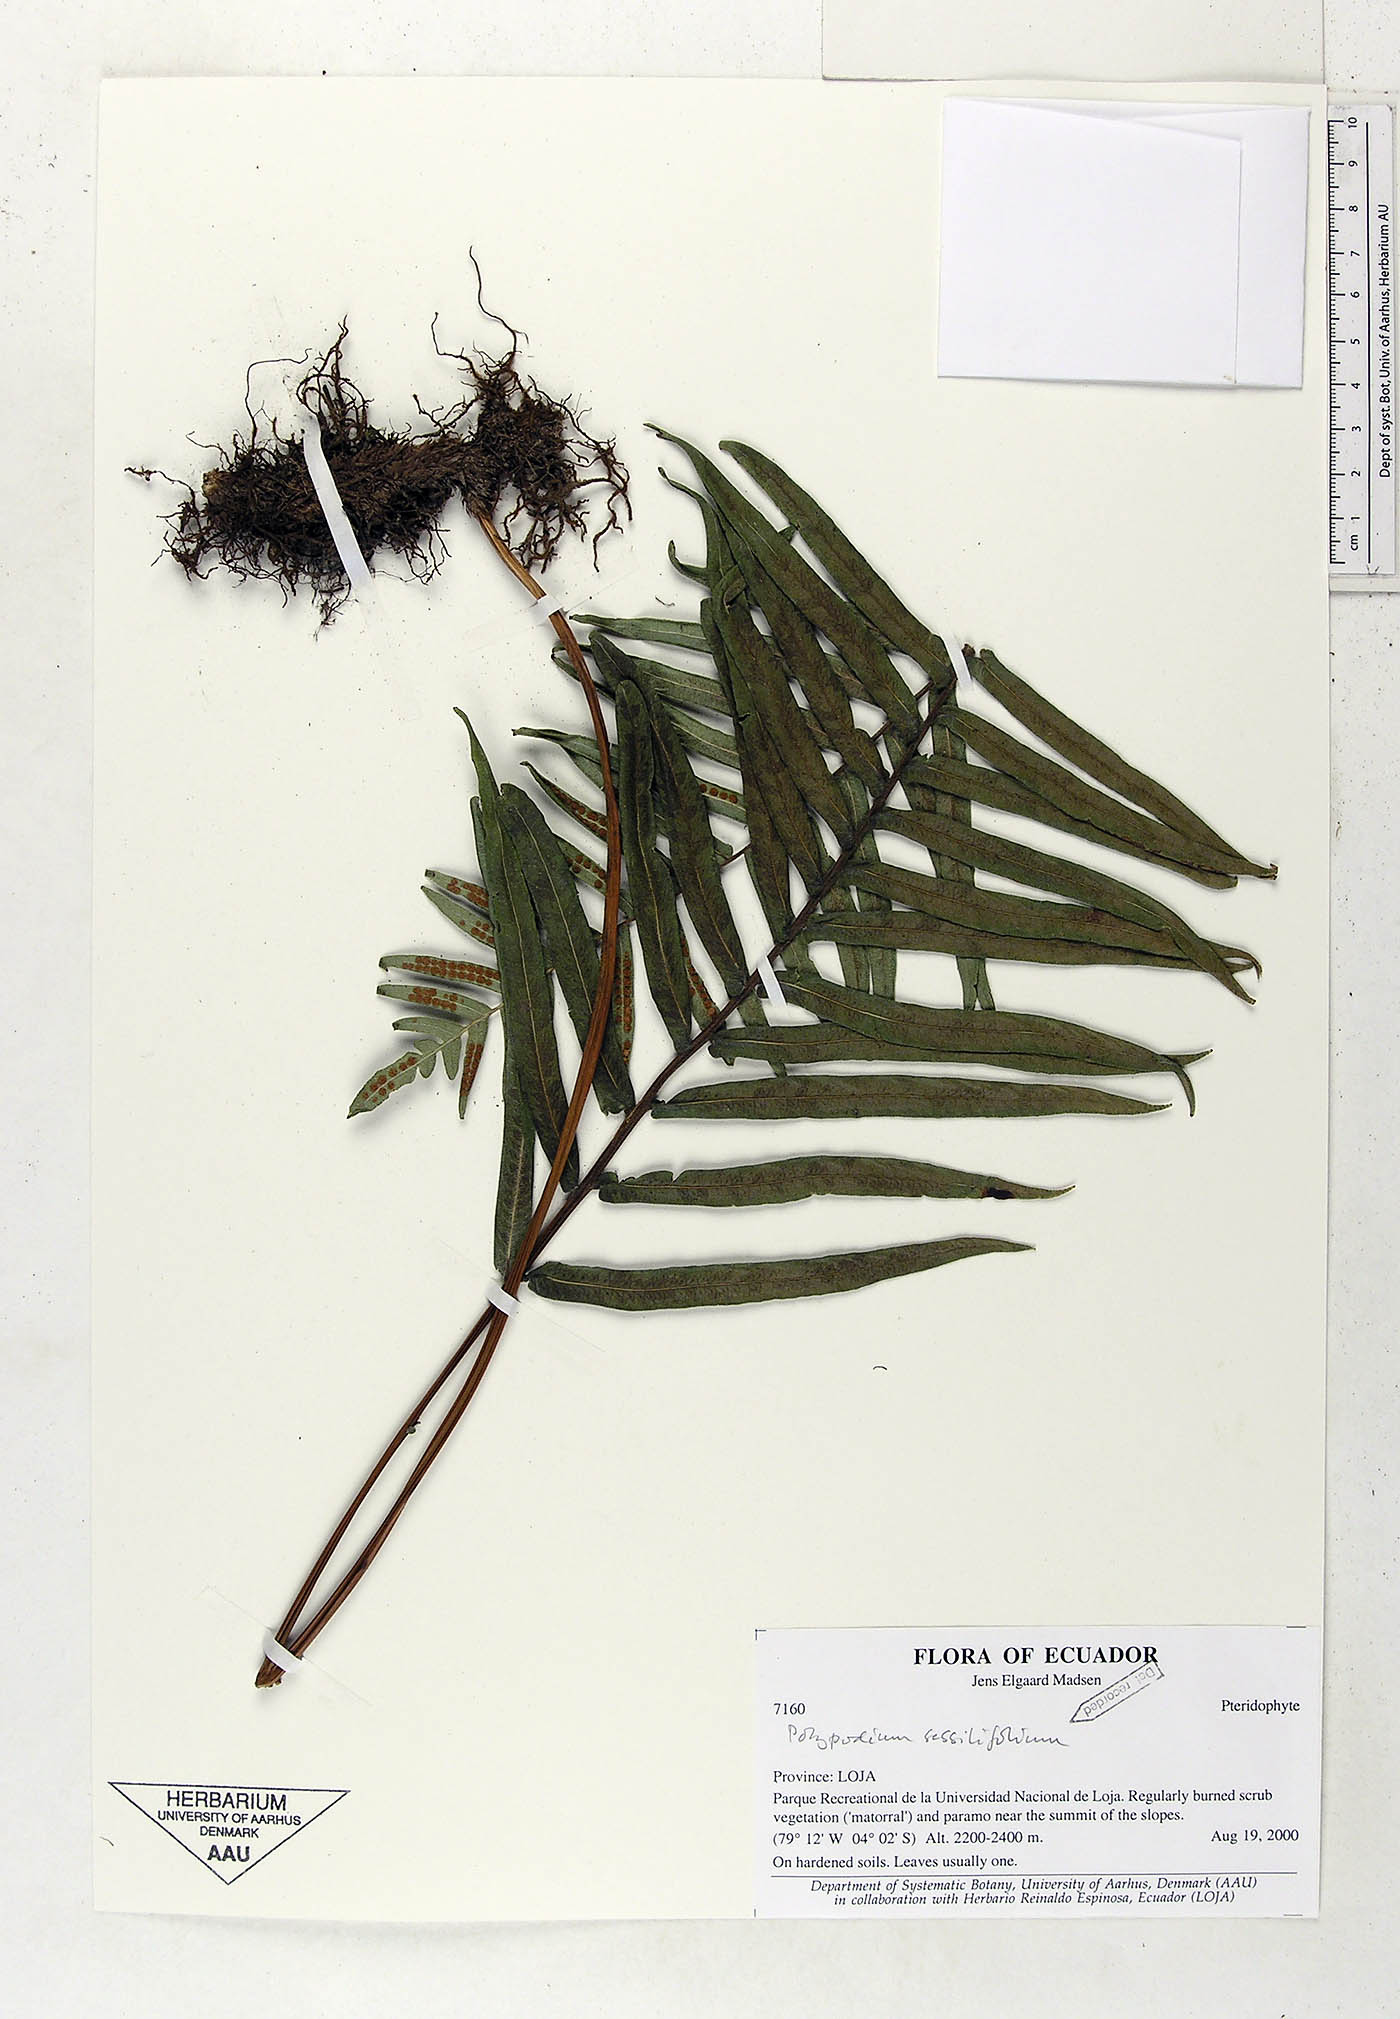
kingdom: Plantae
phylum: Tracheophyta
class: Polypodiopsida
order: Polypodiales
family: Polypodiaceae
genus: Serpocaulon
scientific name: Serpocaulon sessilifolium
